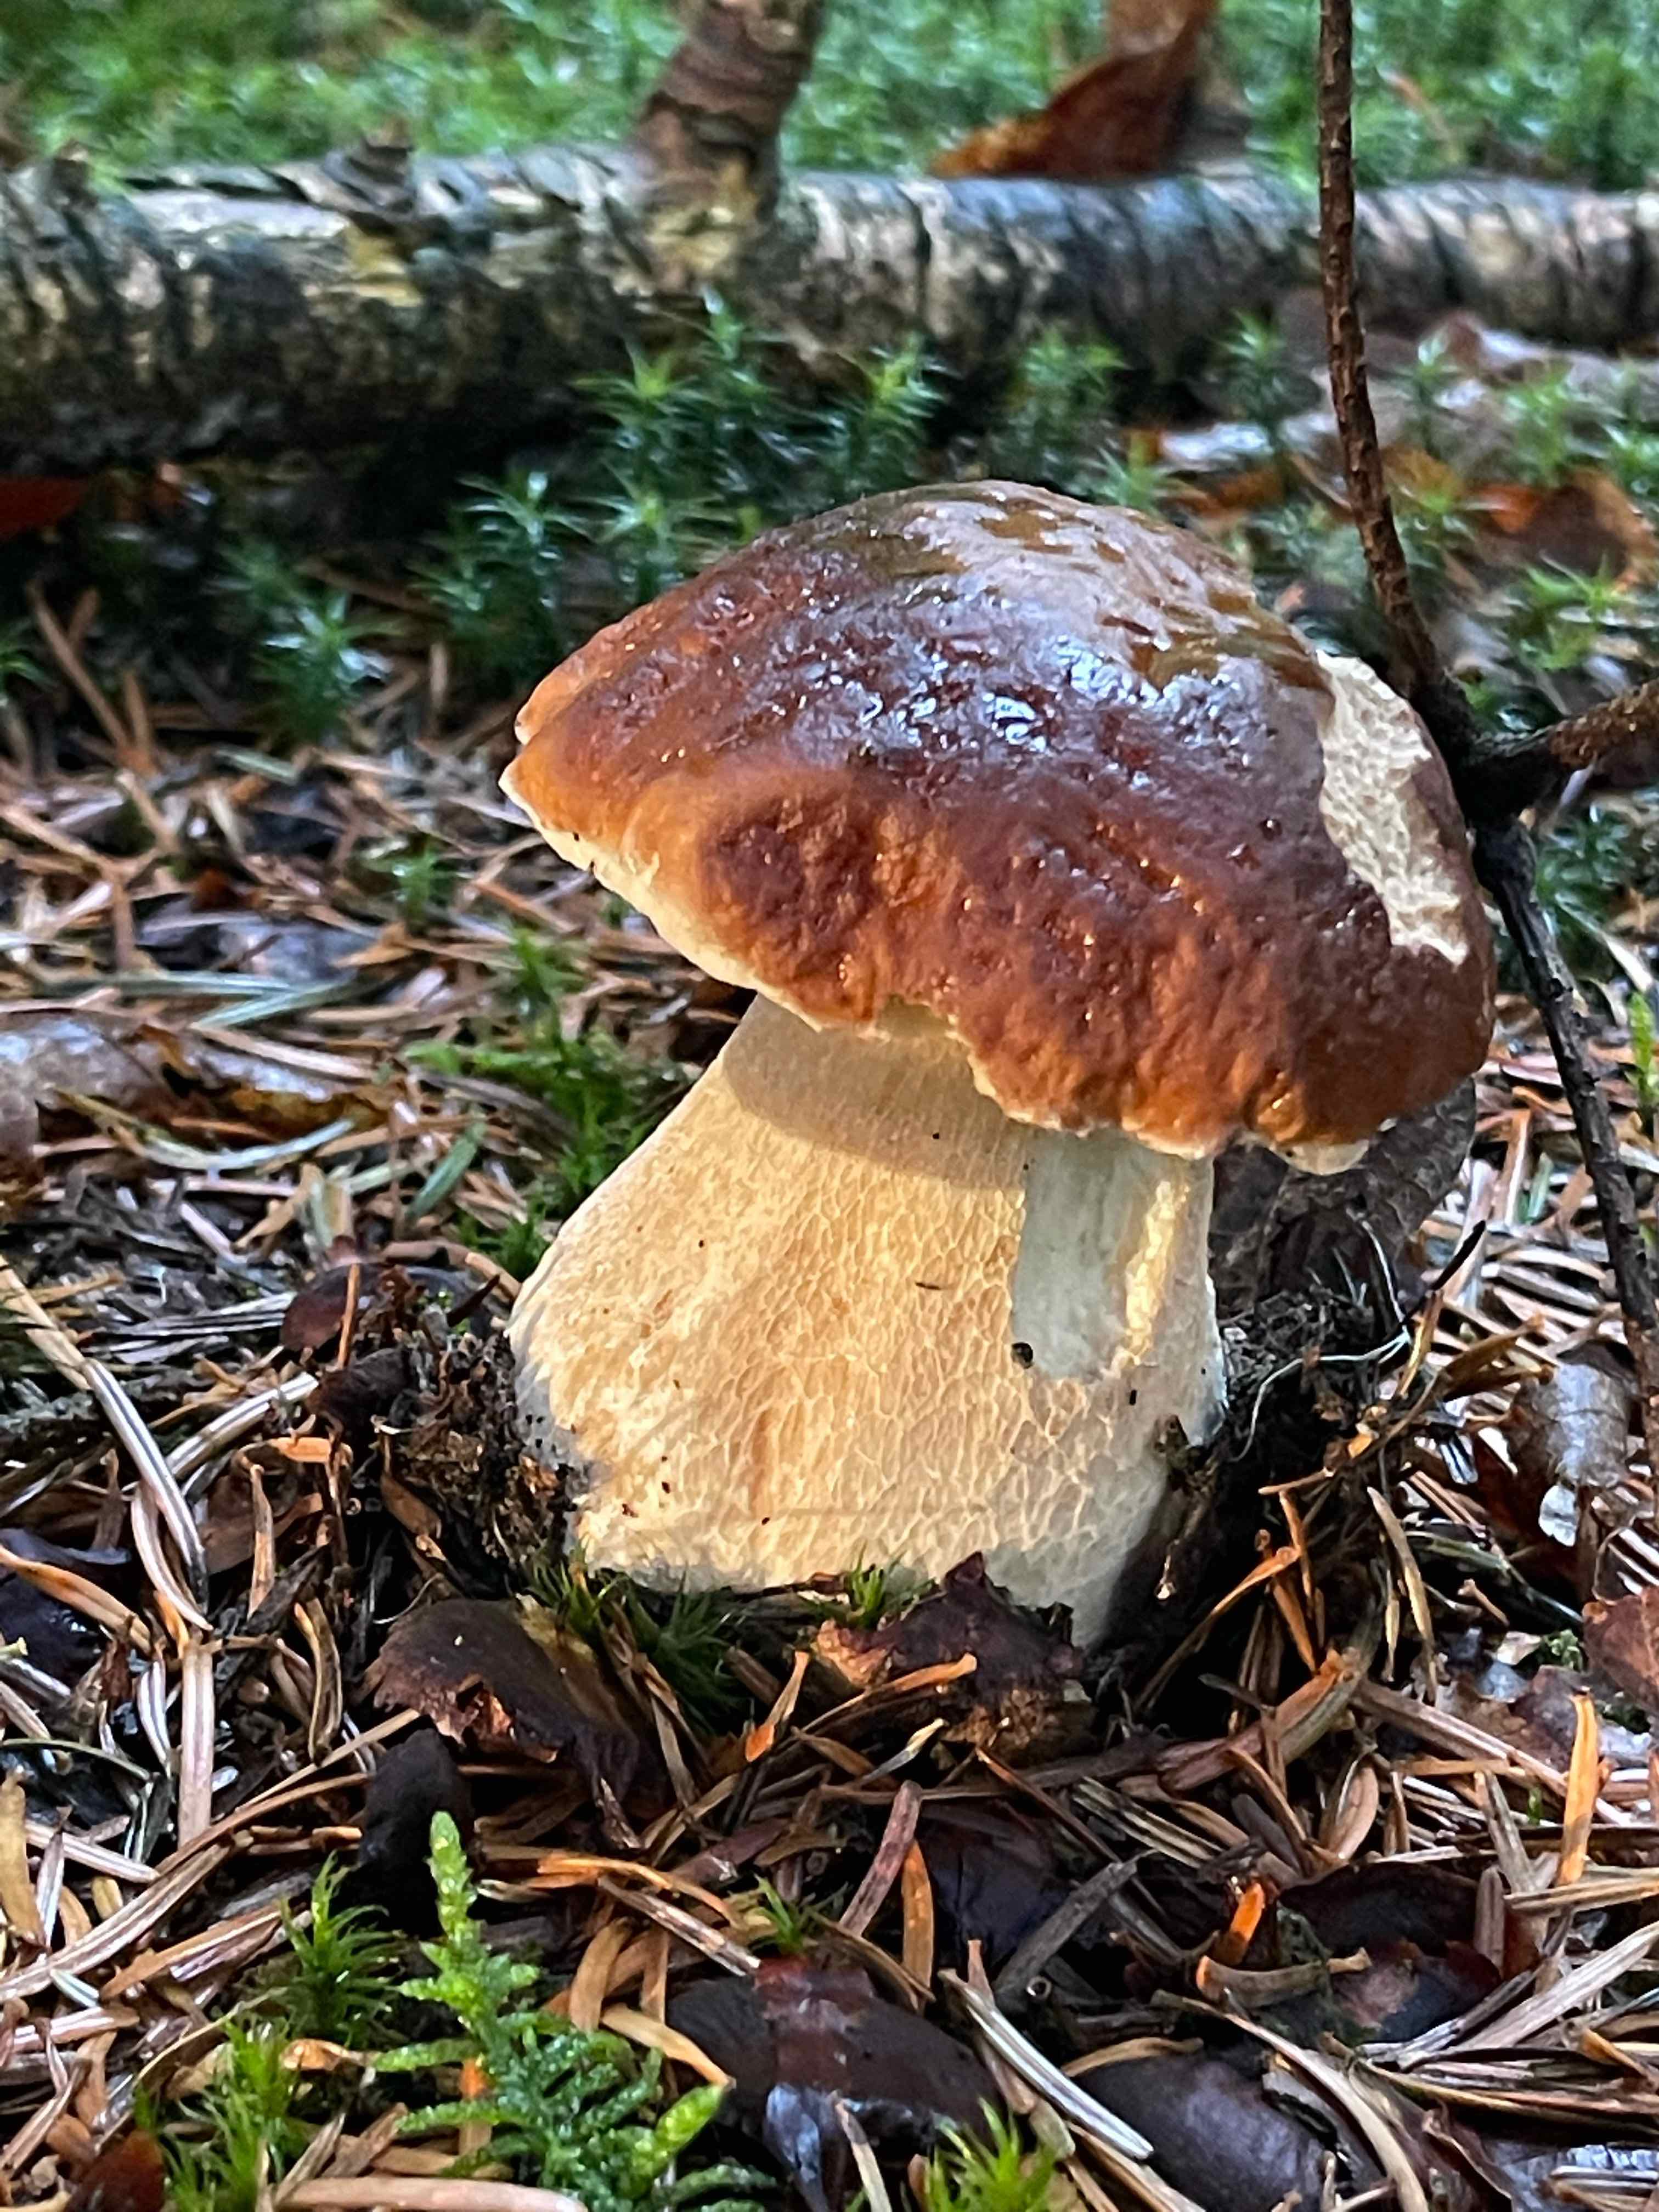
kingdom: Fungi
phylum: Basidiomycota
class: Agaricomycetes
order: Boletales
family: Boletaceae
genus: Boletus
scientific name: Boletus edulis
